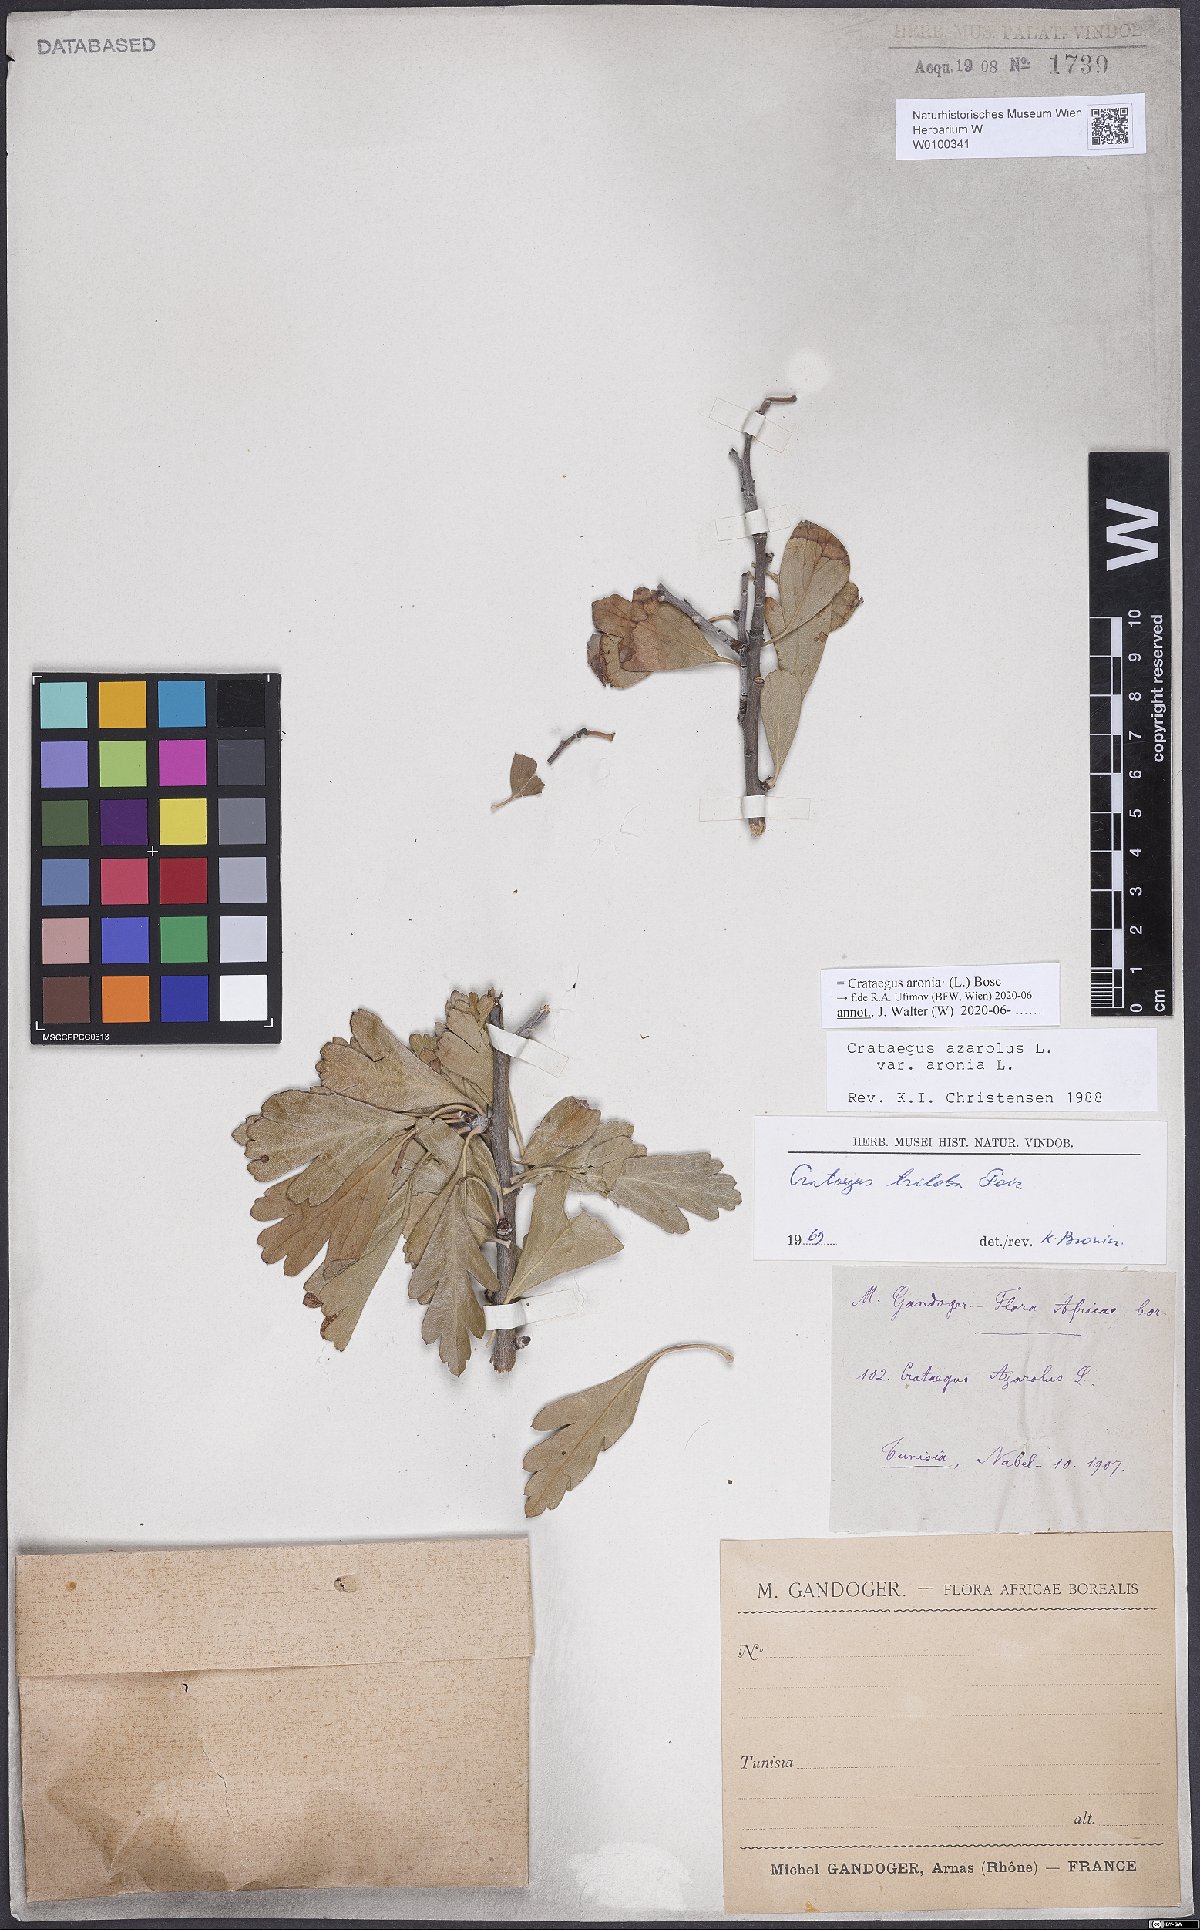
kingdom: Plantae
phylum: Tracheophyta
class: Magnoliopsida
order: Rosales
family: Rosaceae
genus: Crataegus
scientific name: Crataegus azarolus
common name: Azarole
